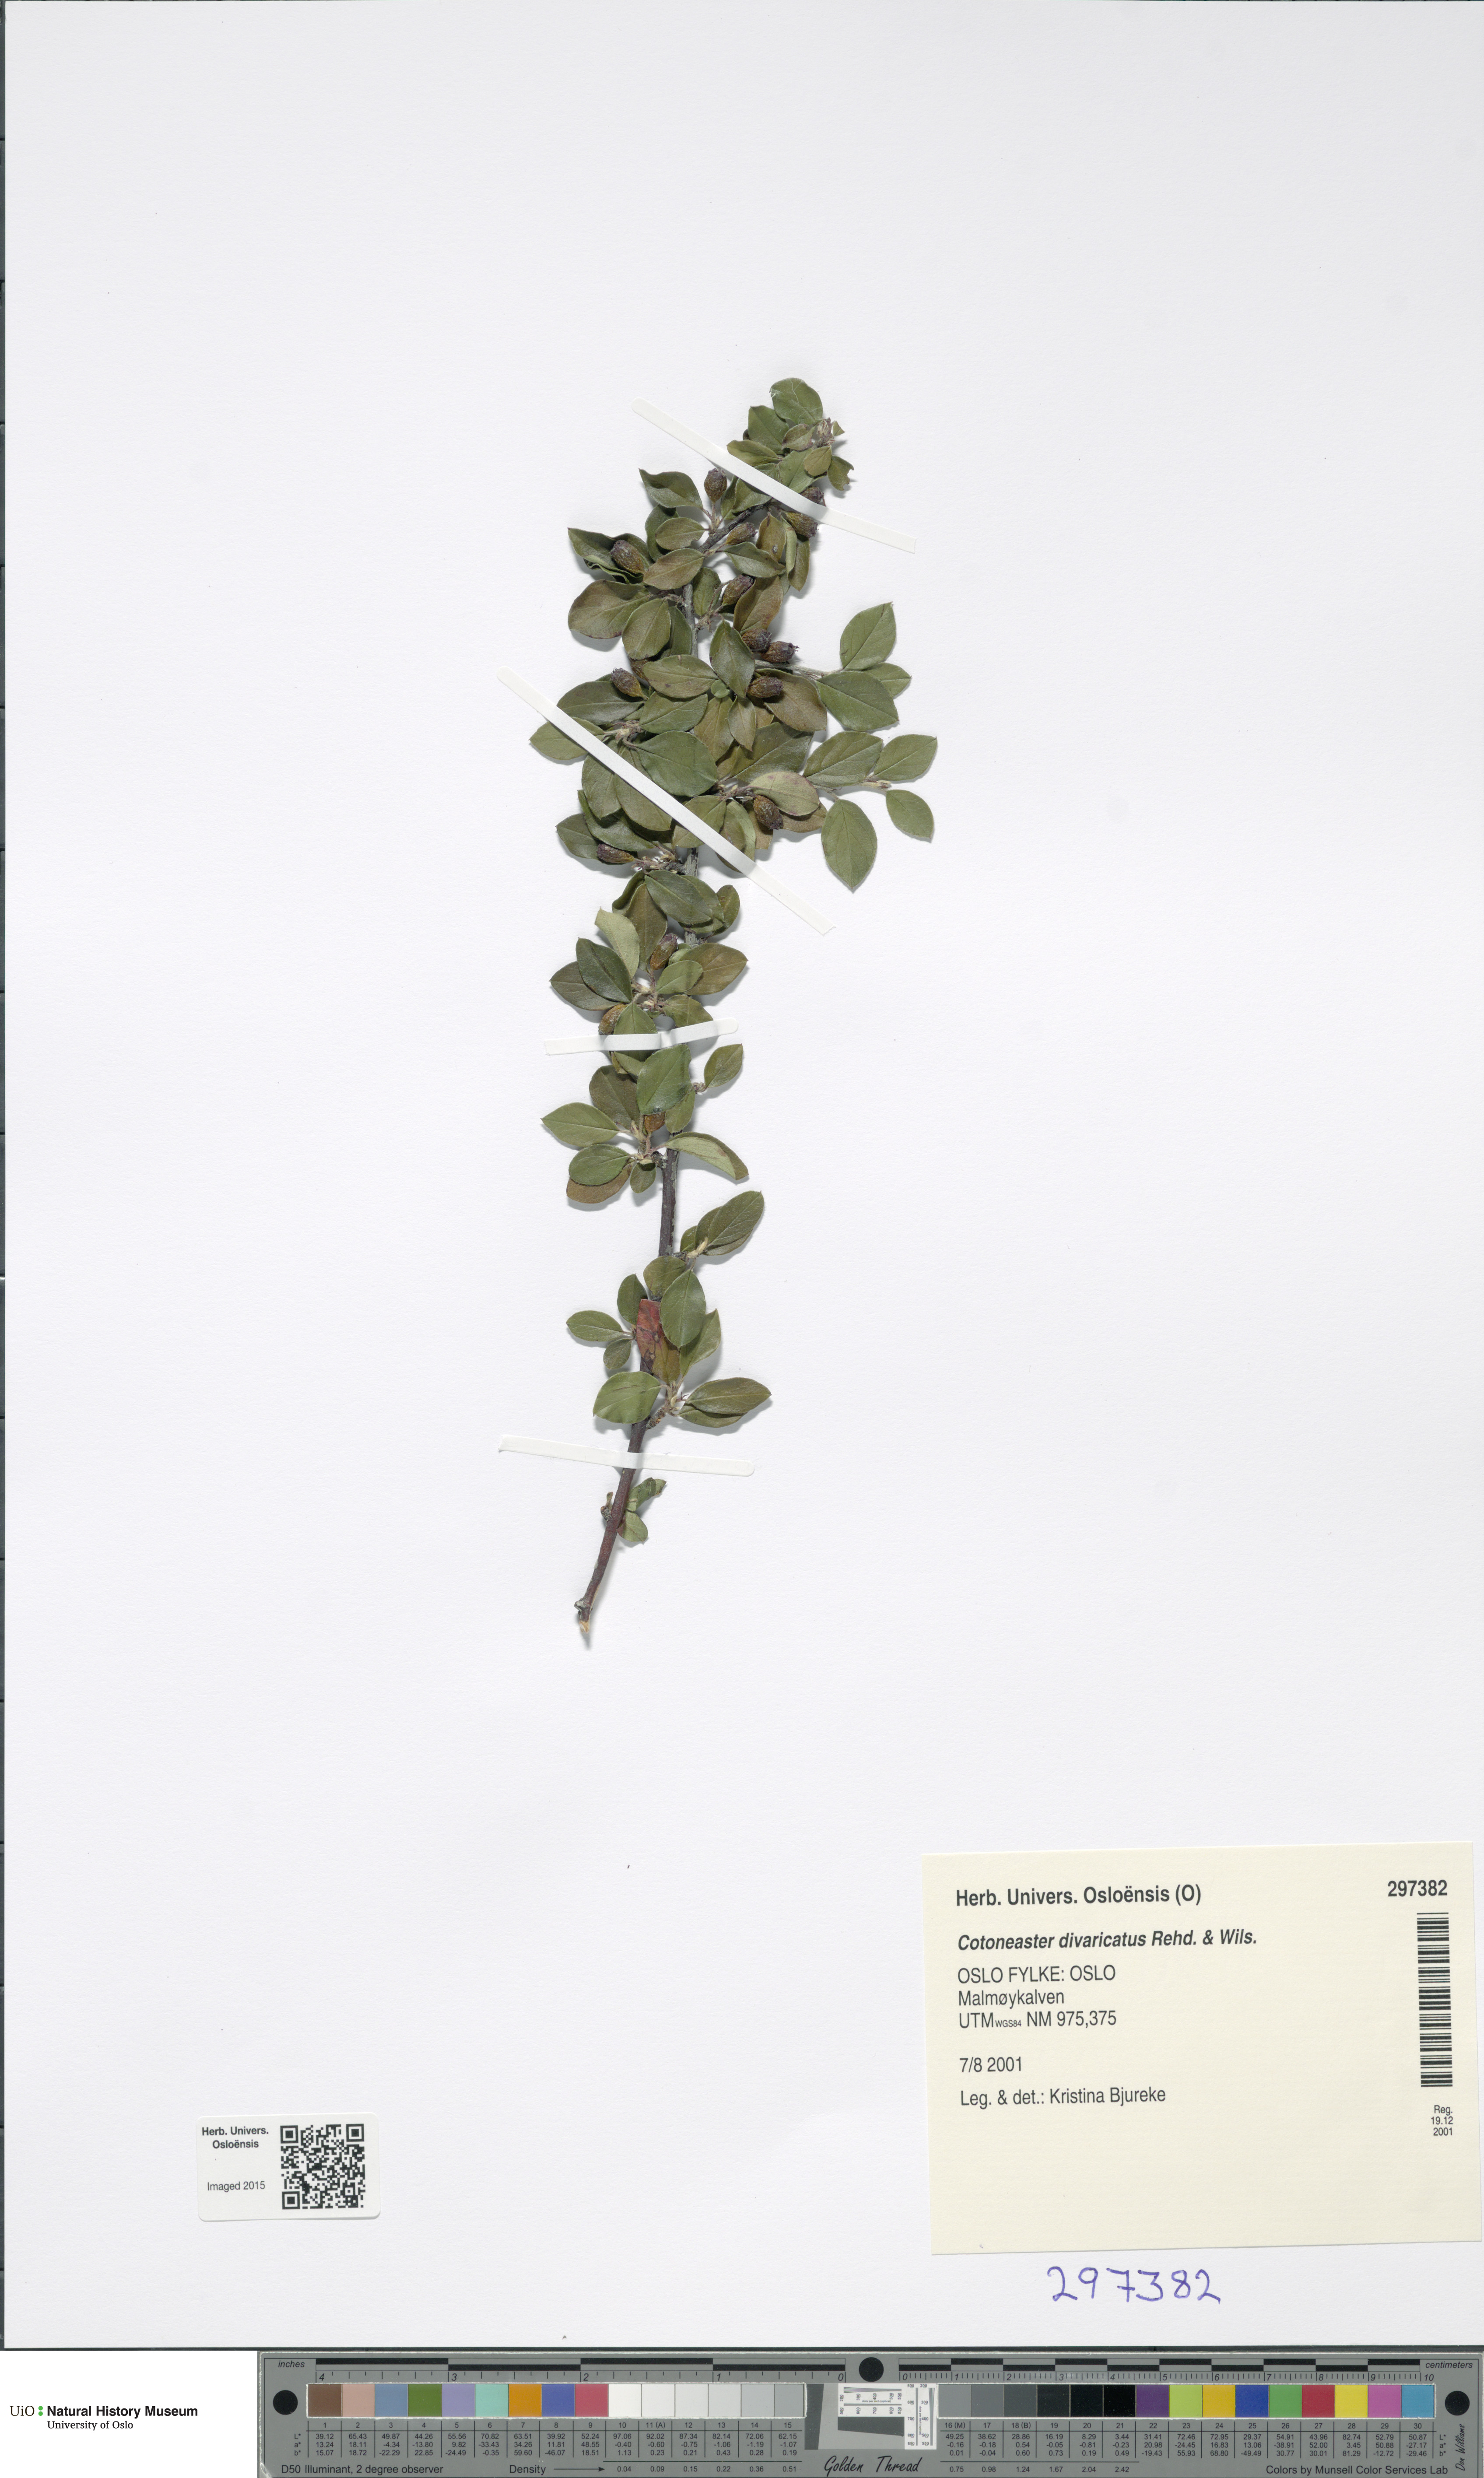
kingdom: Plantae
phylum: Tracheophyta
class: Magnoliopsida
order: Rosales
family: Rosaceae
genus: Cotoneaster
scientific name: Cotoneaster divaricatus
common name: Spreading cotoneaster
